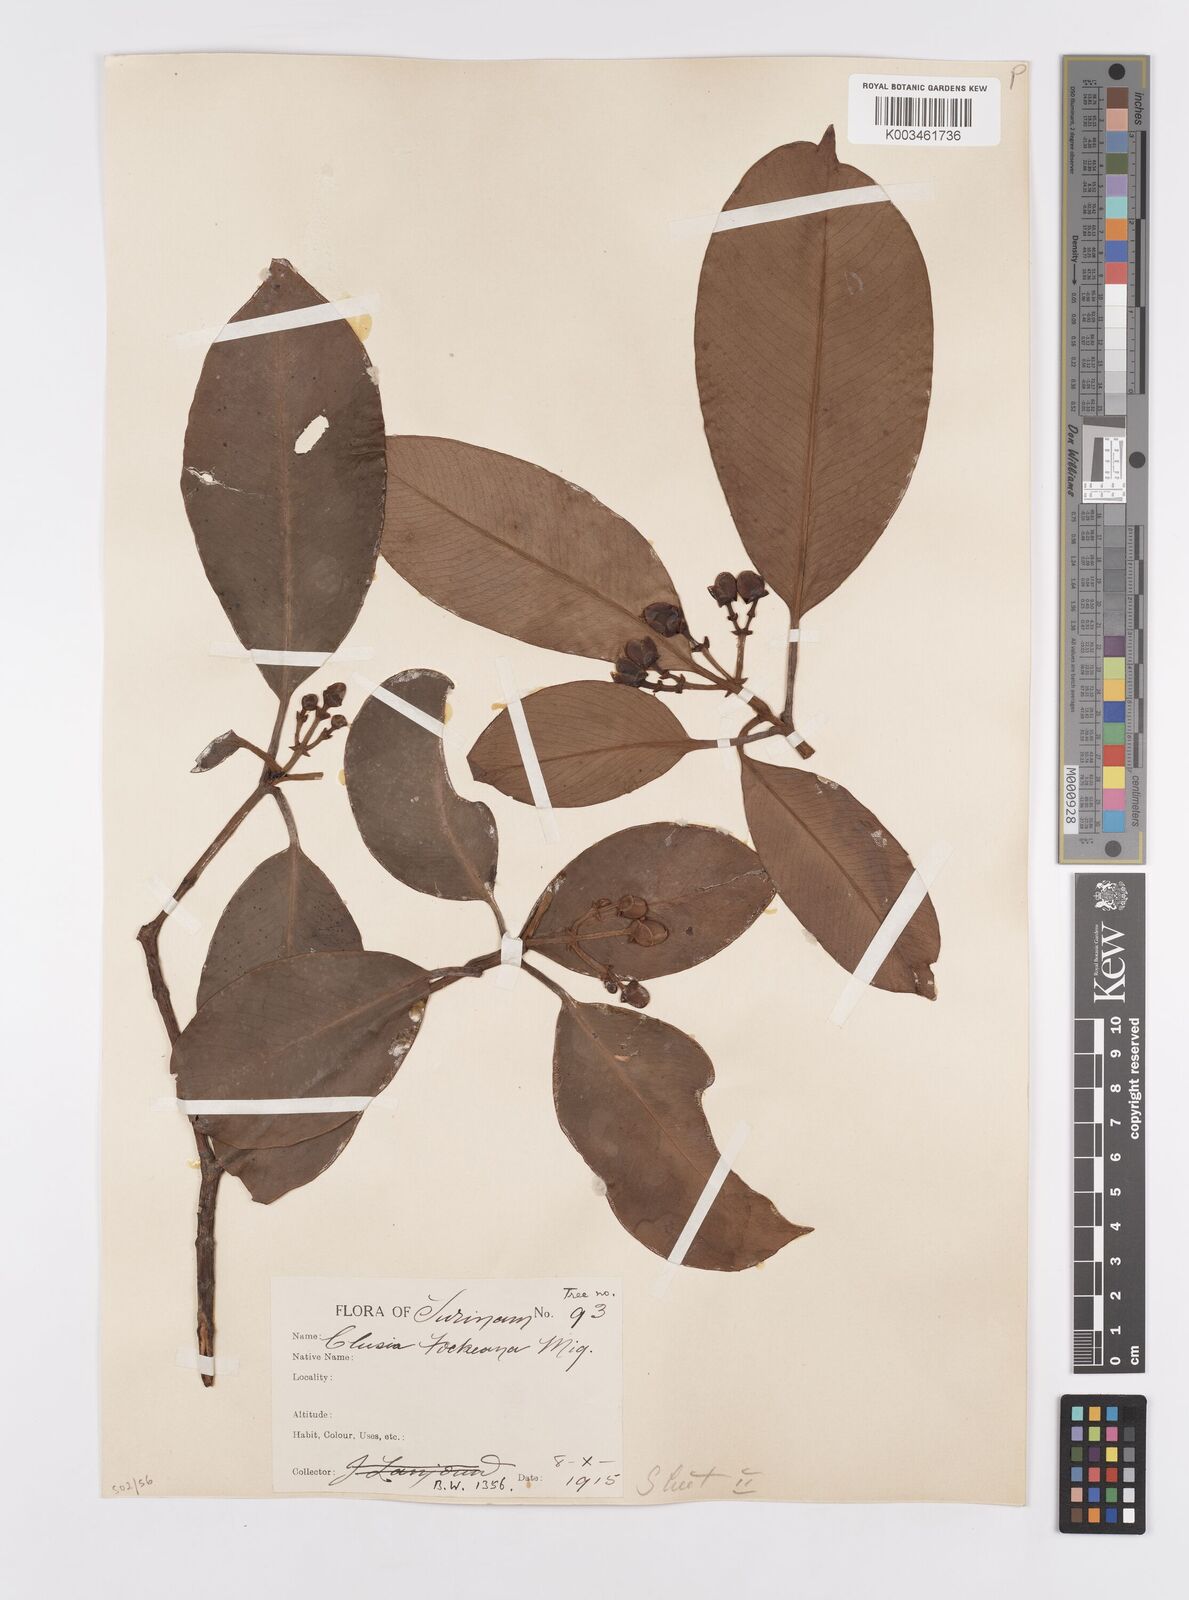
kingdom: Plantae
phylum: Tracheophyta
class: Magnoliopsida
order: Malpighiales
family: Clusiaceae
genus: Clusia
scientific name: Clusia fockeana
